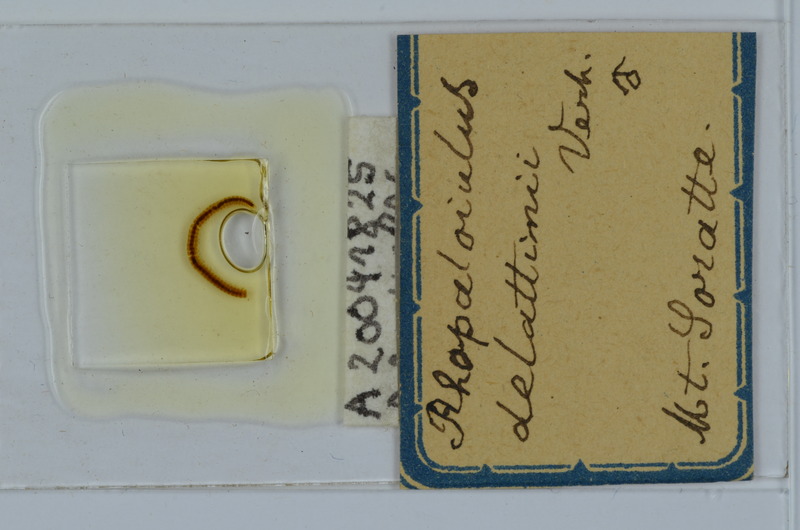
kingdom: Animalia
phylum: Arthropoda
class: Diplopoda
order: Julida
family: Rhopaloiulidae
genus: Rhopaloiulus
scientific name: Rhopaloiulus cameratanus
